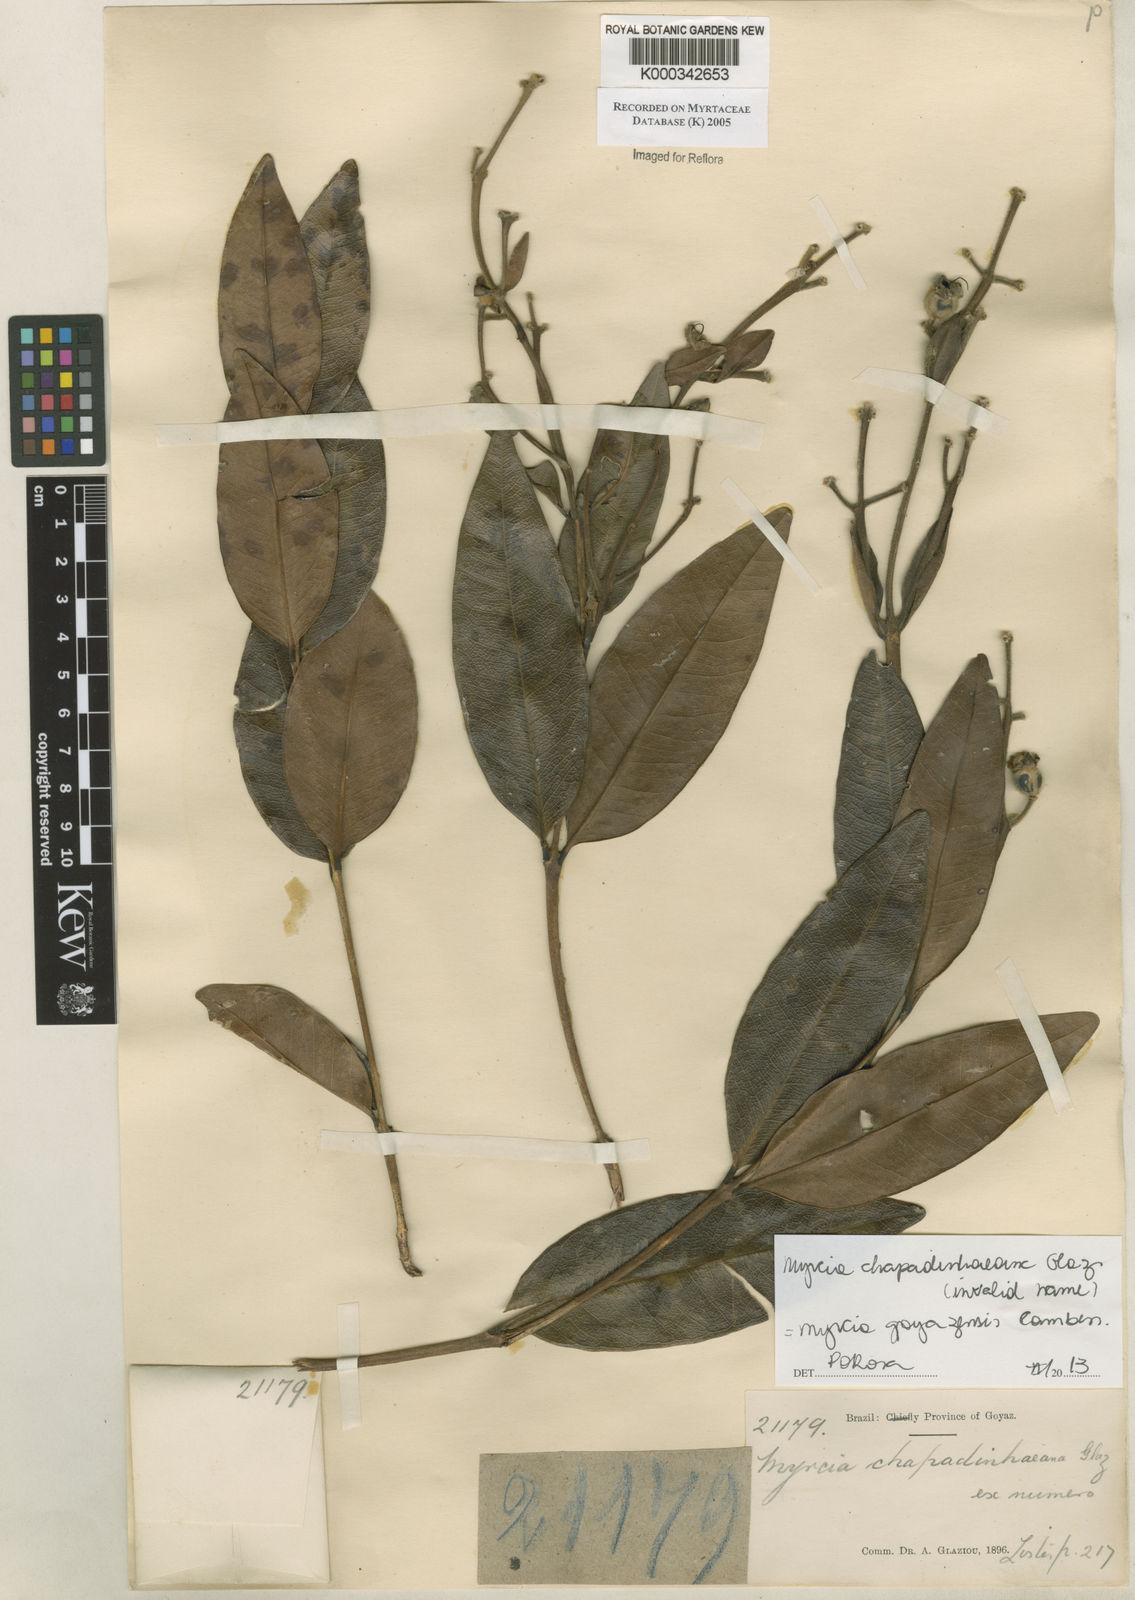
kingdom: Plantae
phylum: Tracheophyta
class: Magnoliopsida
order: Myrtales
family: Myrtaceae
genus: Myrcia
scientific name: Myrcia
